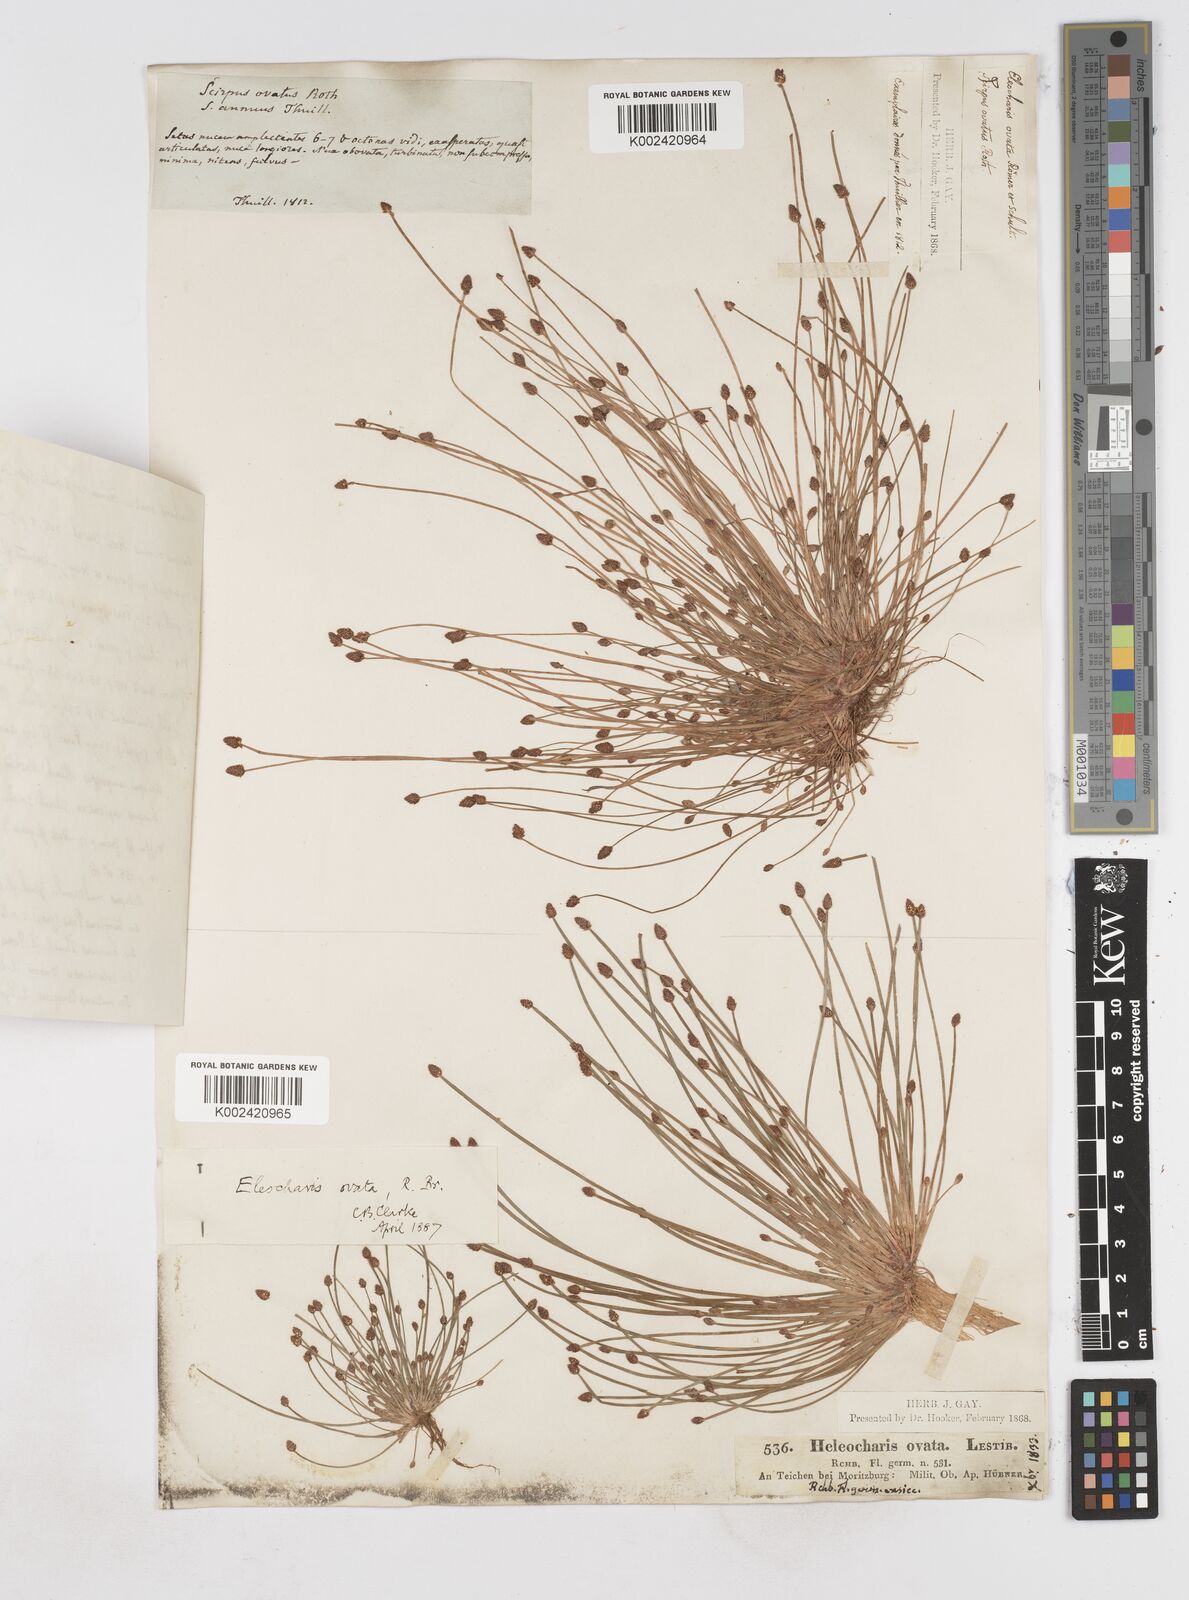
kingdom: Plantae
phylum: Tracheophyta
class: Liliopsida
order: Poales
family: Cyperaceae
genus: Eleocharis
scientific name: Eleocharis ovata
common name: Oval spike-rush
